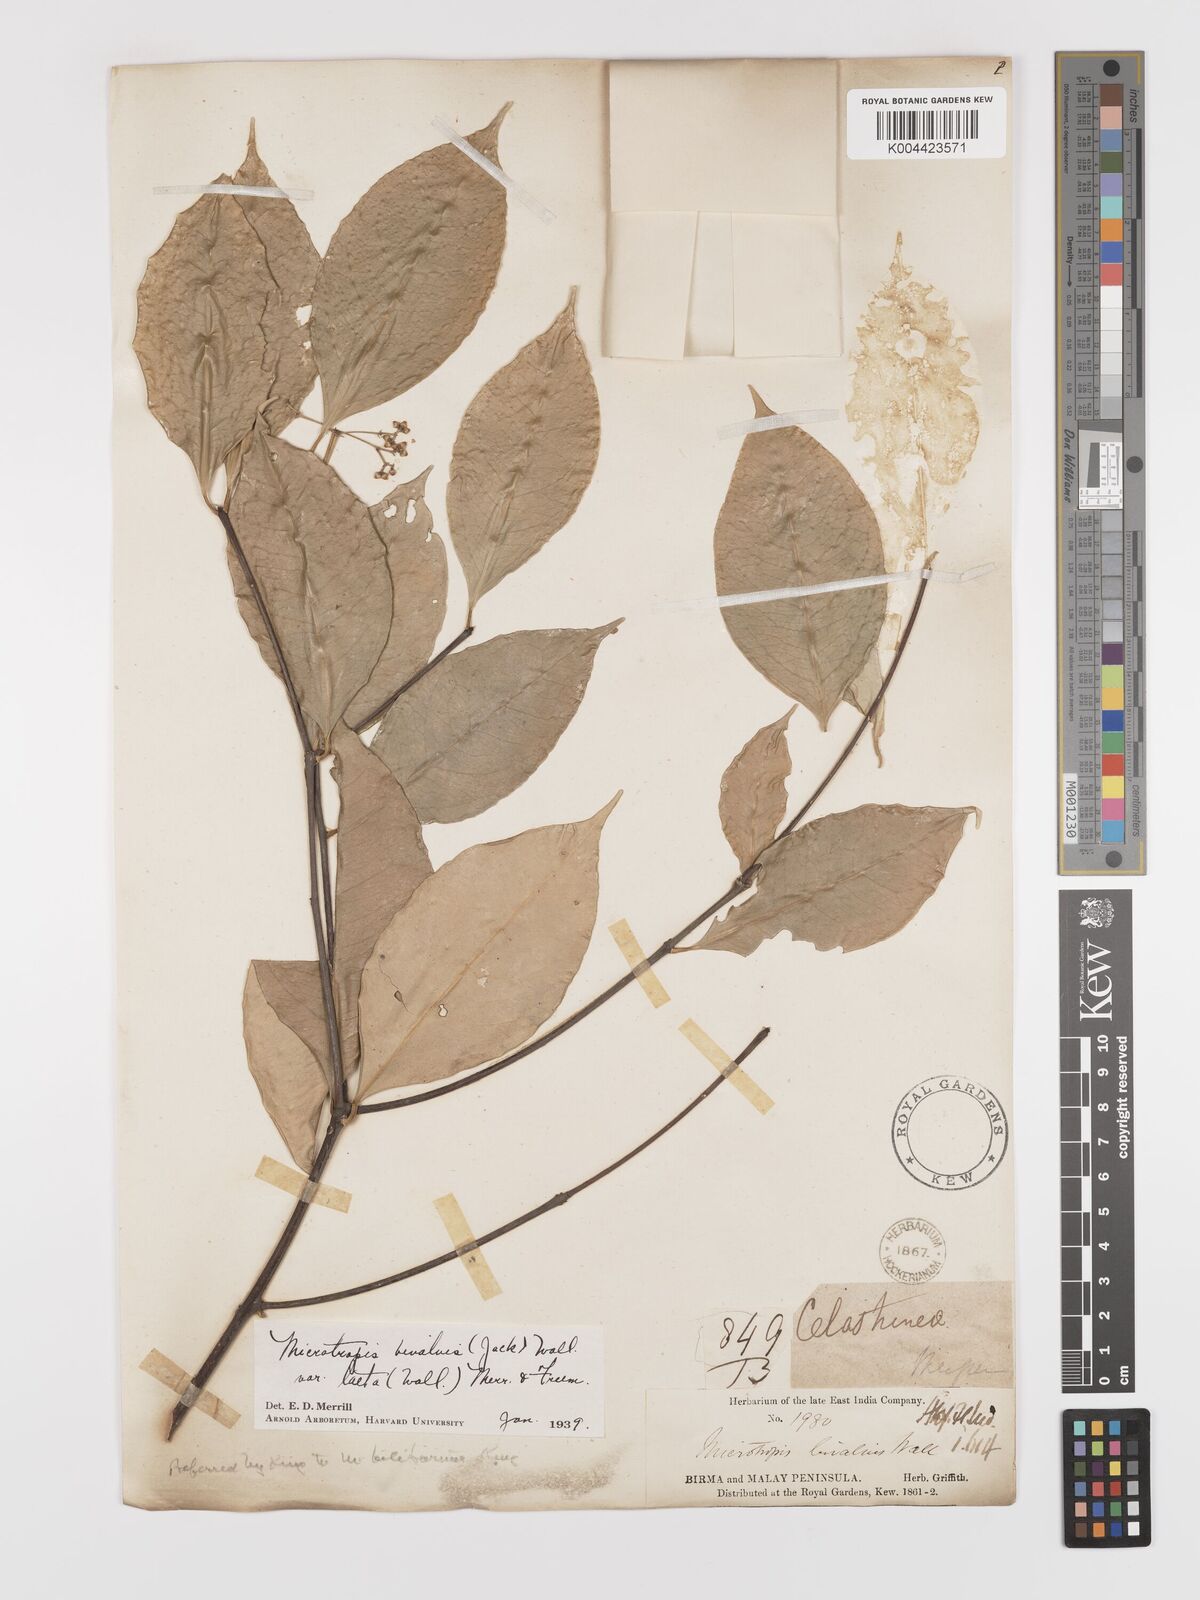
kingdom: Plantae
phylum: Tracheophyta
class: Magnoliopsida
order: Celastrales
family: Celastraceae
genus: Microtropis
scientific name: Microtropis bivalvis
